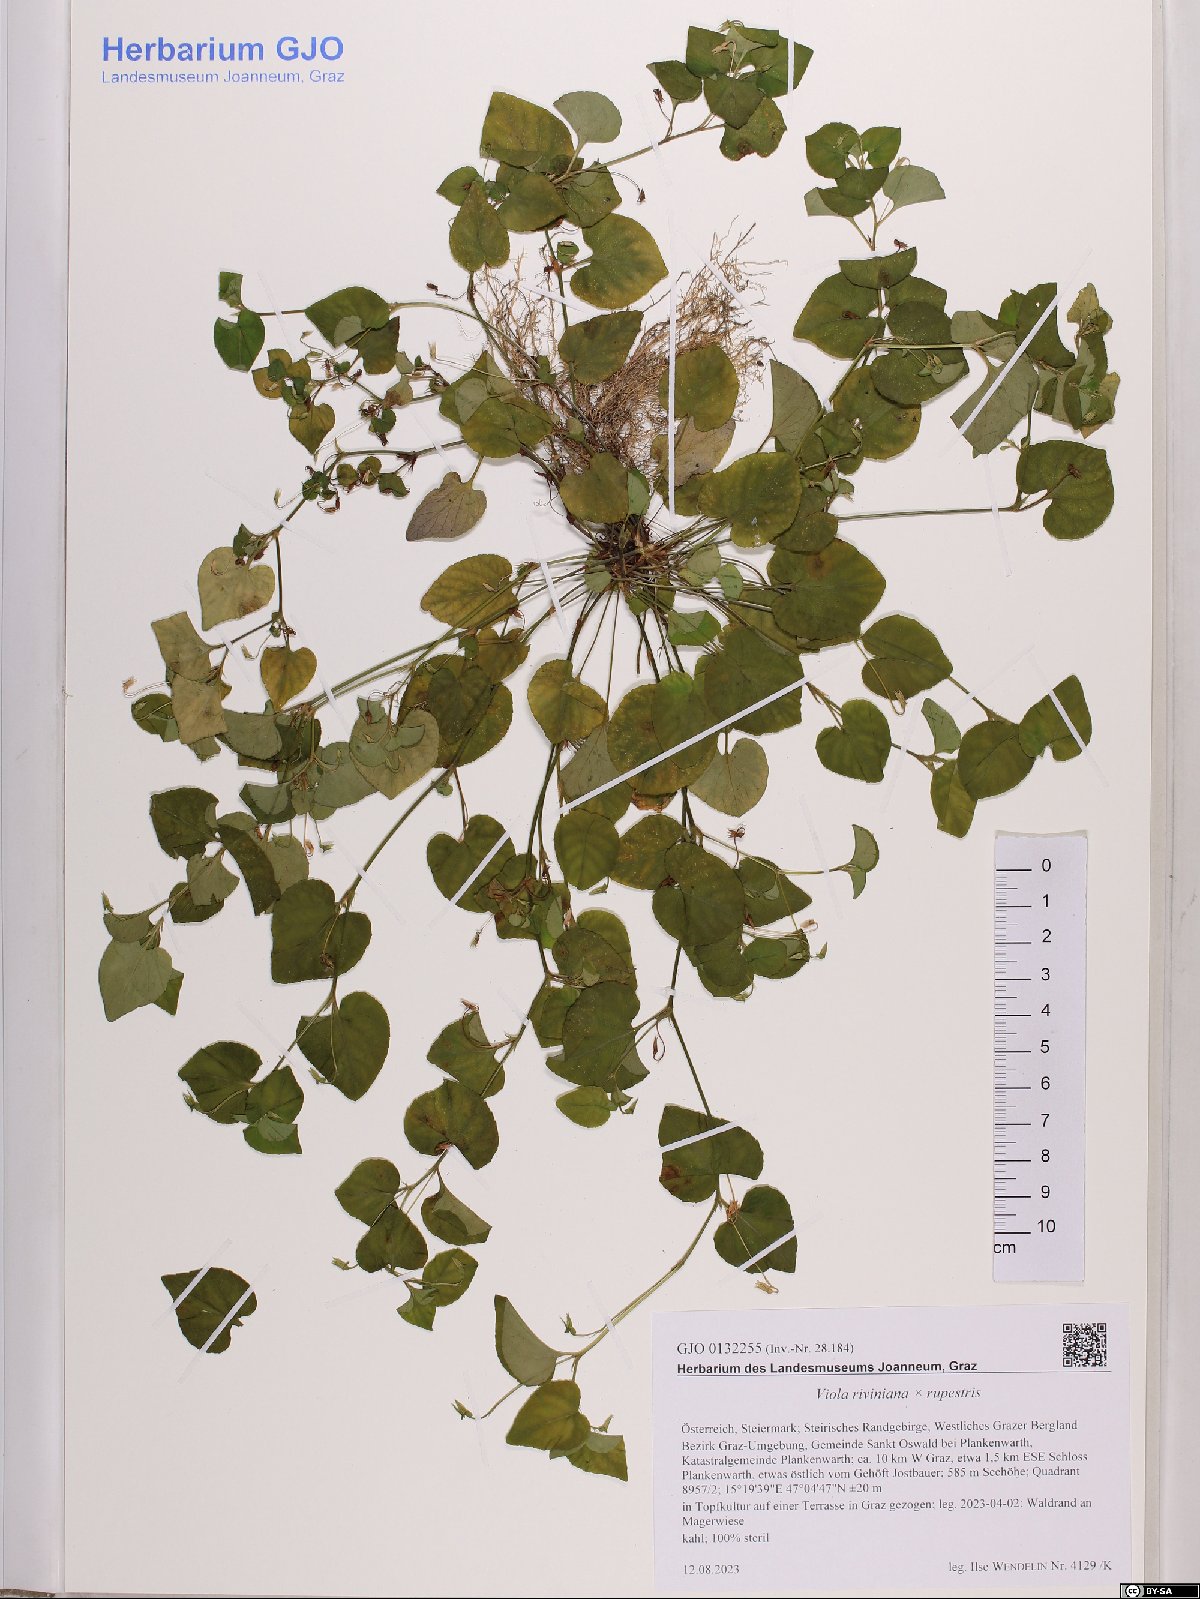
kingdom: Plantae
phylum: Tracheophyta
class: Magnoliopsida
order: Malpighiales
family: Violaceae
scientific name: Violaceae
